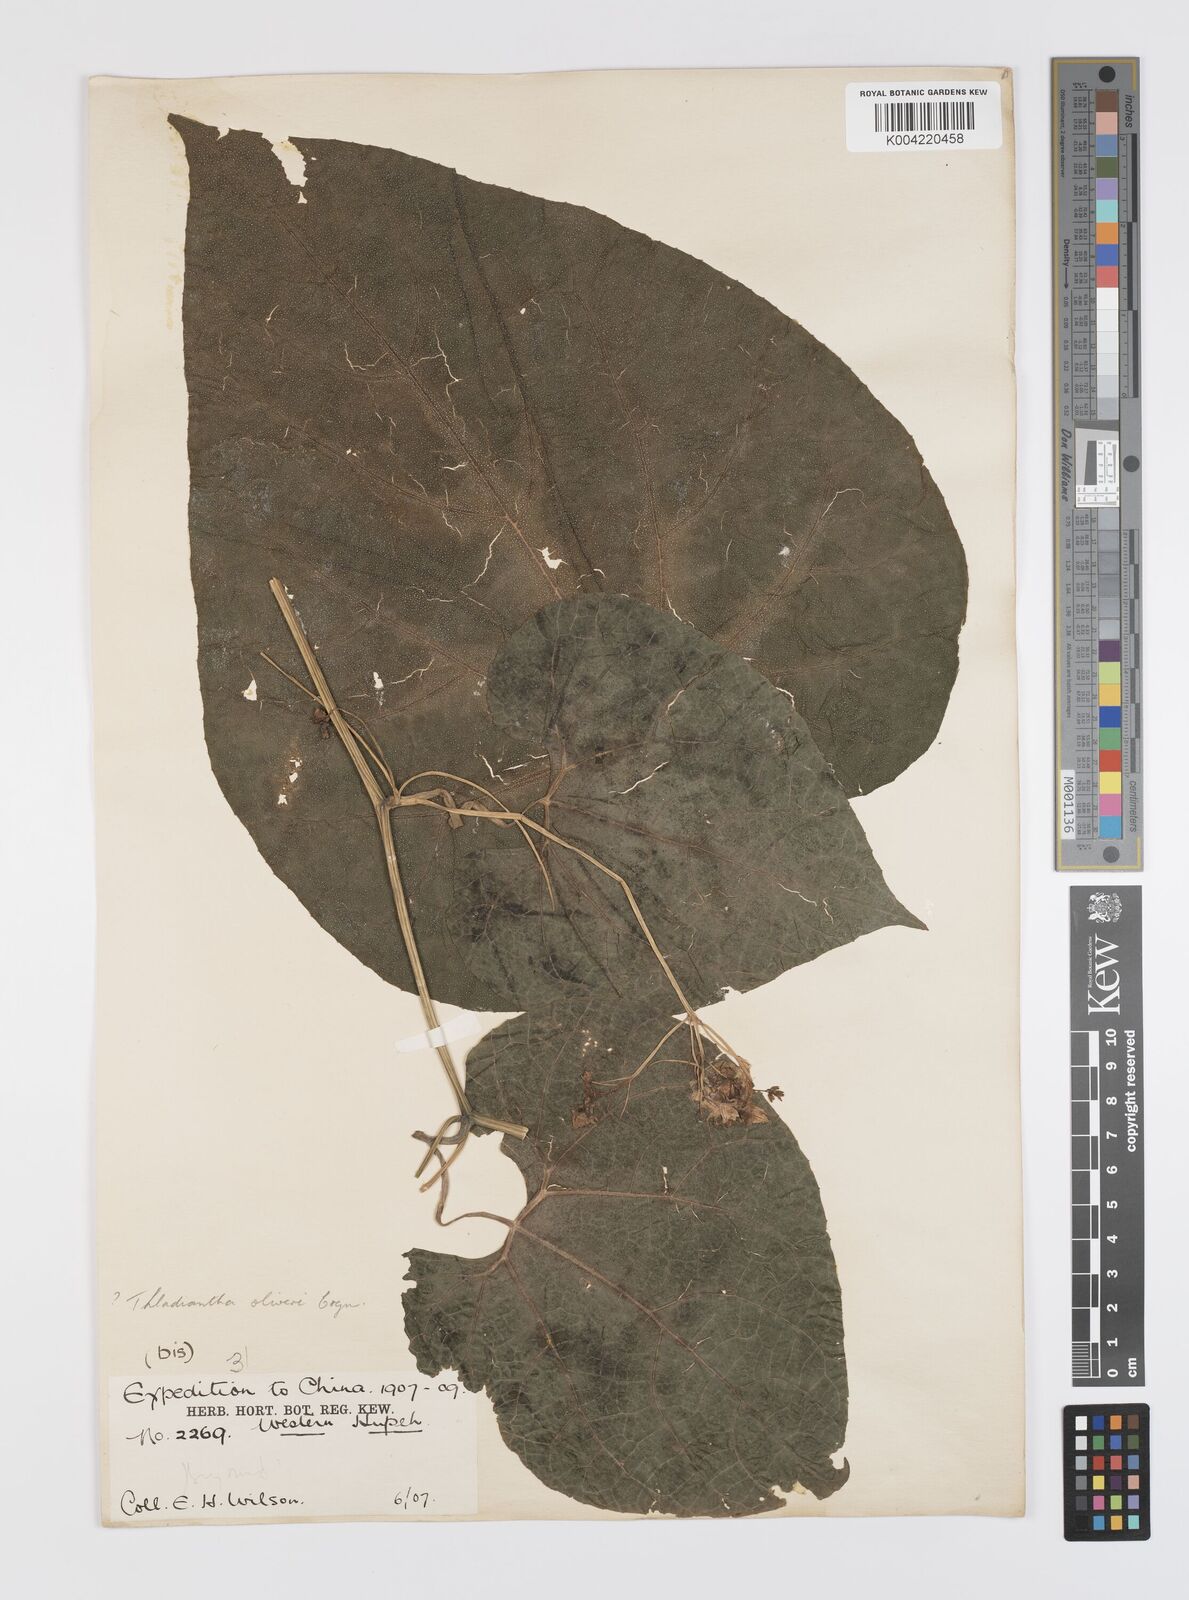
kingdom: Plantae
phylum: Tracheophyta
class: Magnoliopsida
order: Cucurbitales
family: Cucurbitaceae
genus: Thladiantha
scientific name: Thladiantha montana
